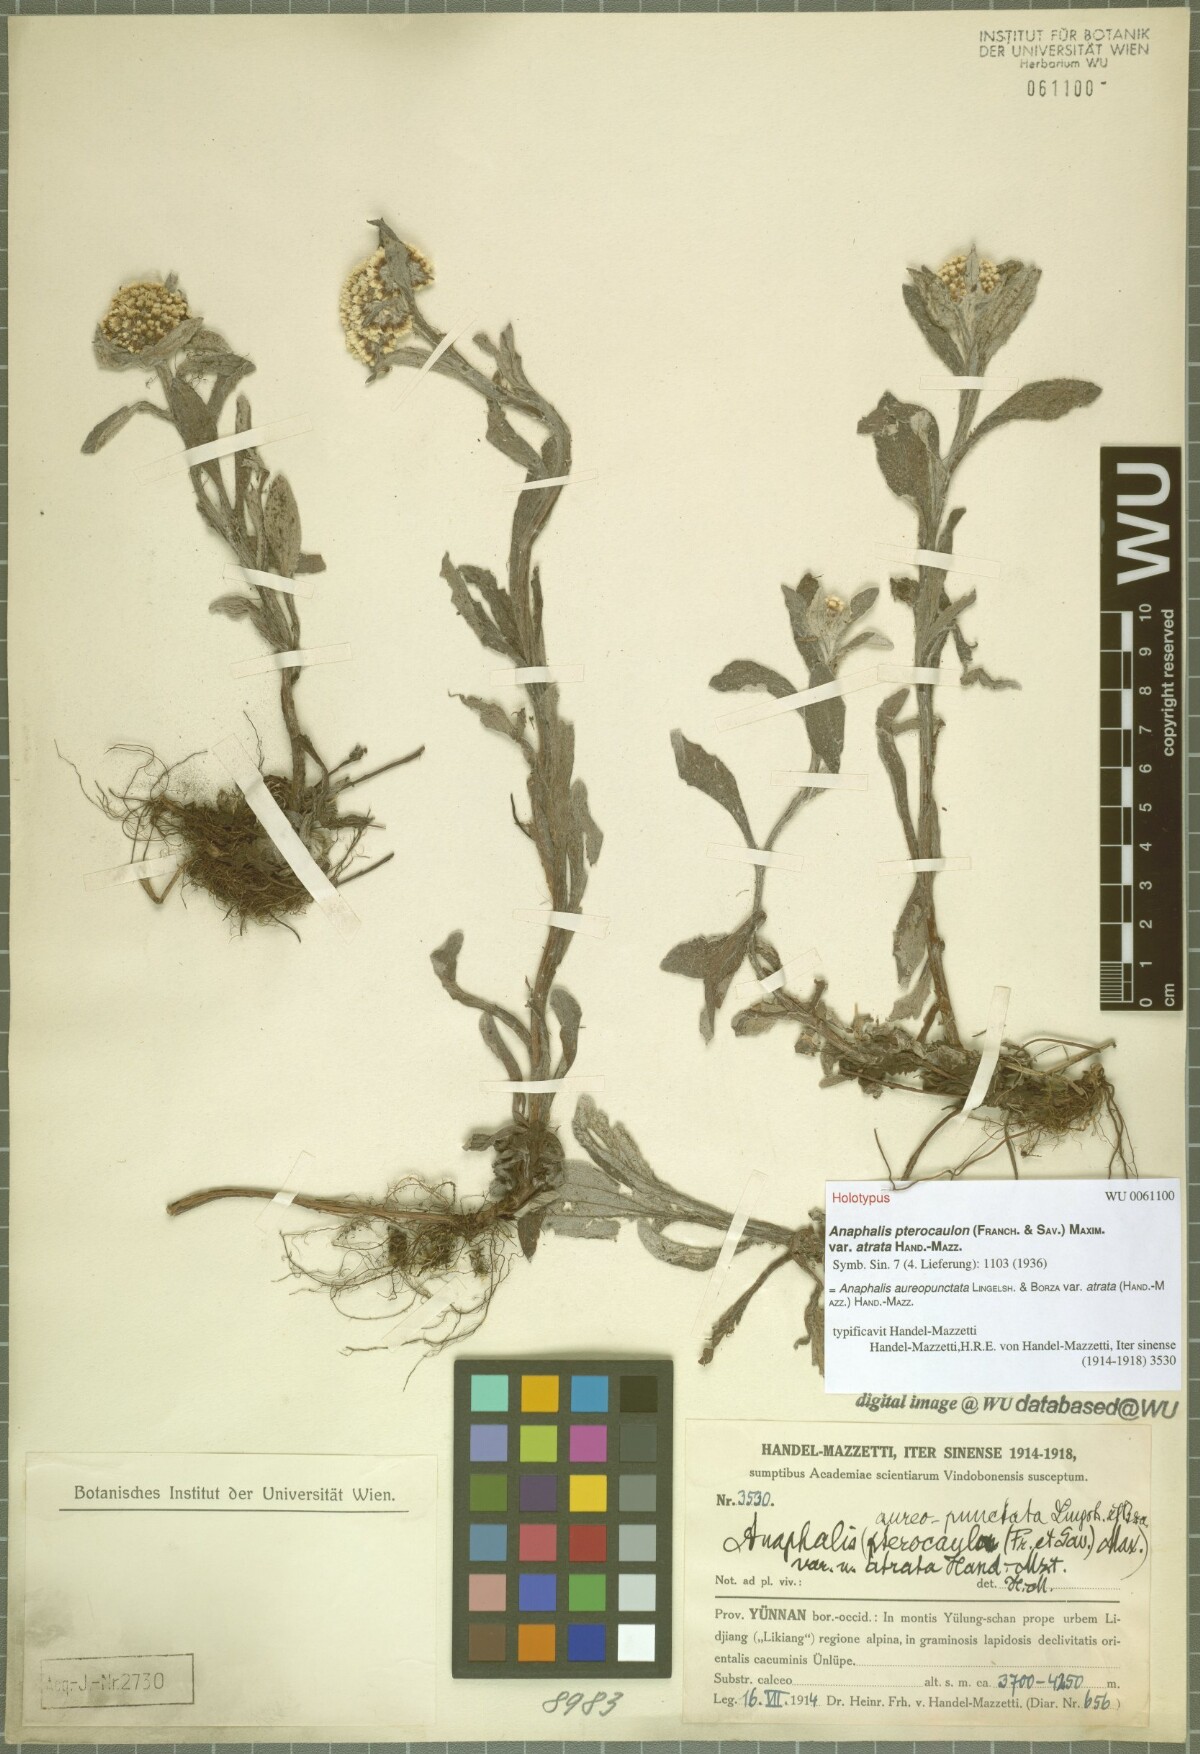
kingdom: Plantae
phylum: Tracheophyta
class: Magnoliopsida
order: Asterales
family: Asteraceae
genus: Anaphalis
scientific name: Anaphalis aureopunctata
